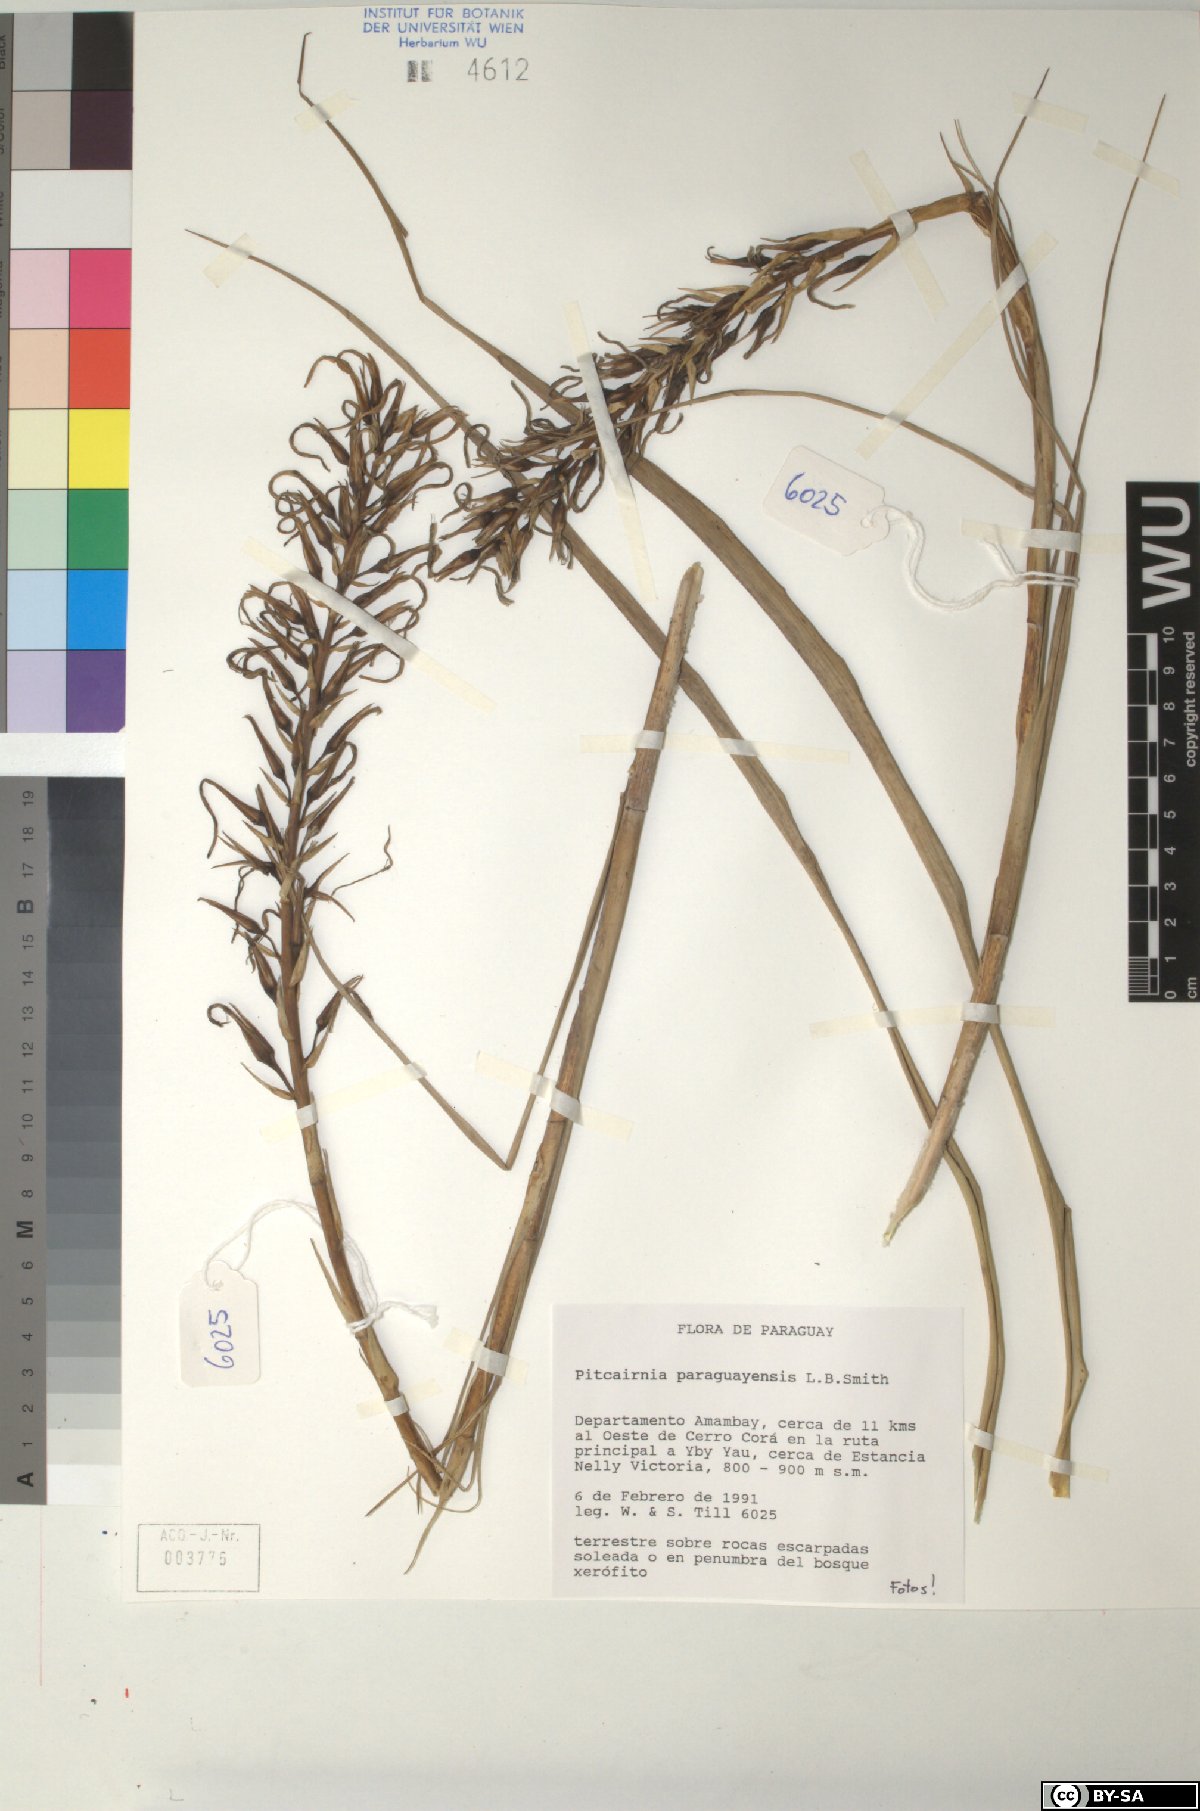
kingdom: Plantae
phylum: Tracheophyta
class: Liliopsida
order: Poales
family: Bromeliaceae
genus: Pitcairnia
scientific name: Pitcairnia paraguayensis
